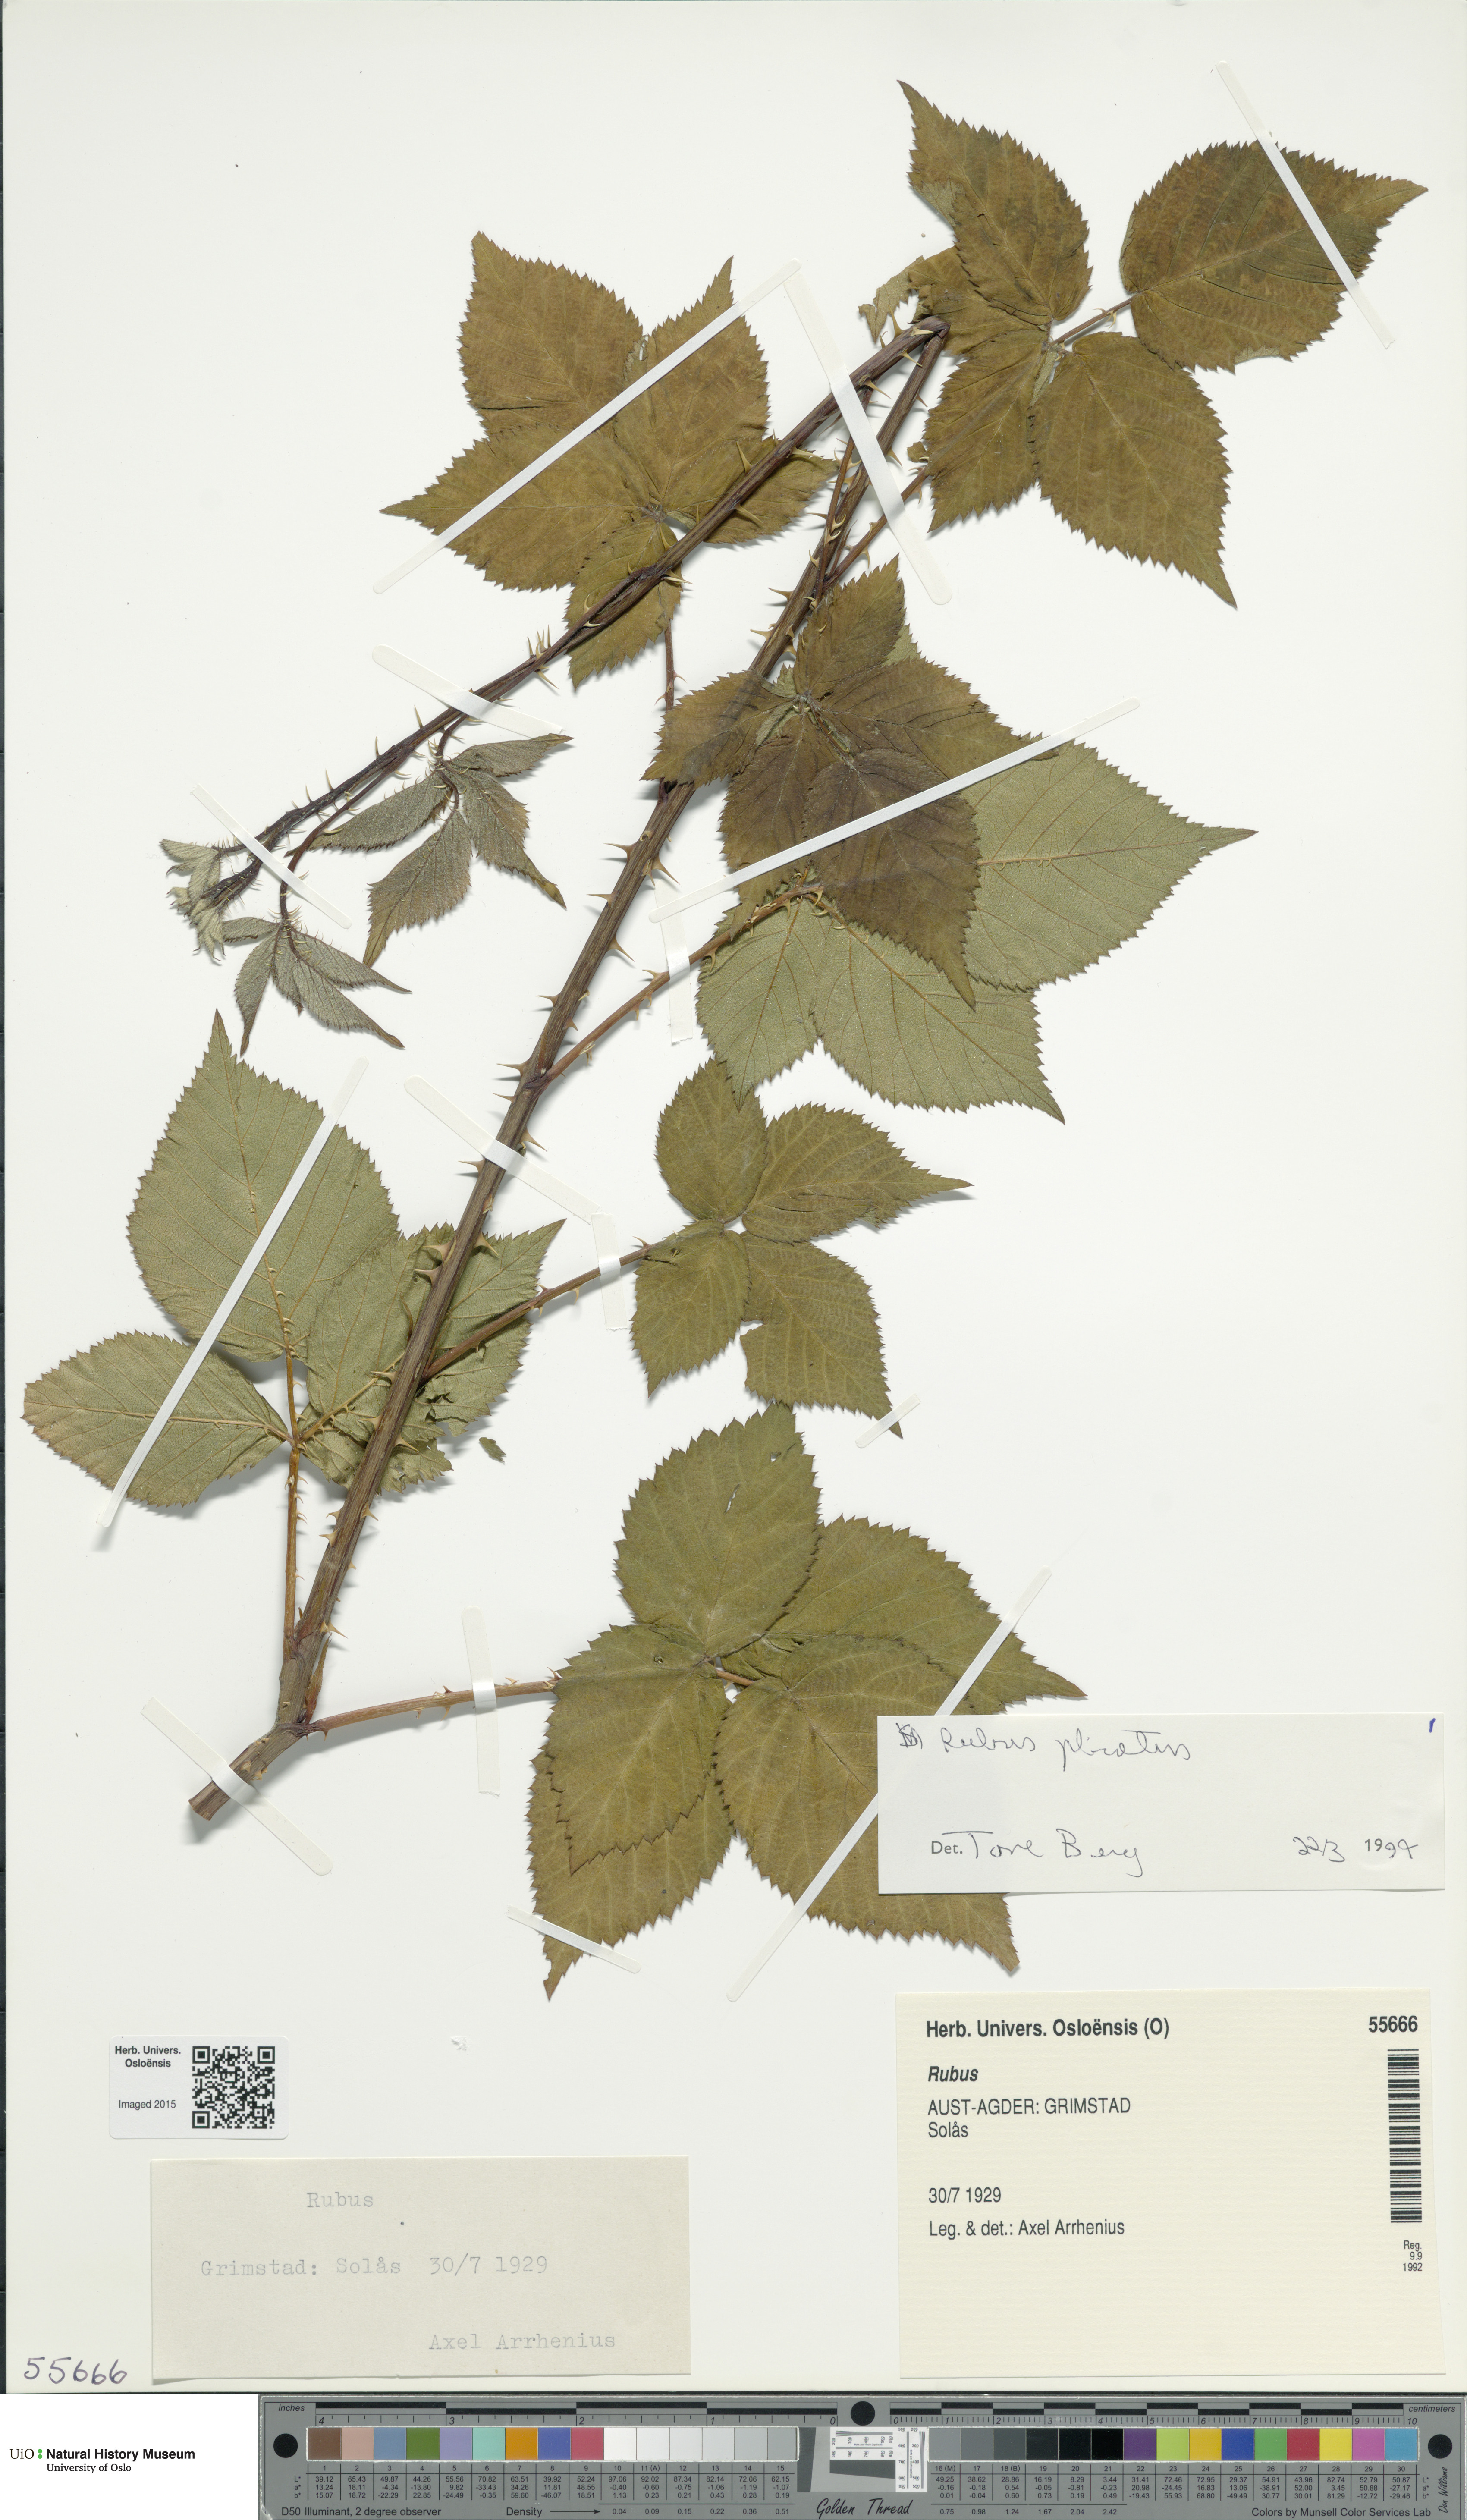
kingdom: Plantae
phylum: Tracheophyta
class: Magnoliopsida
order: Rosales
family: Rosaceae
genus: Rubus
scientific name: Rubus fruticosus
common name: Blackberry, bramble
